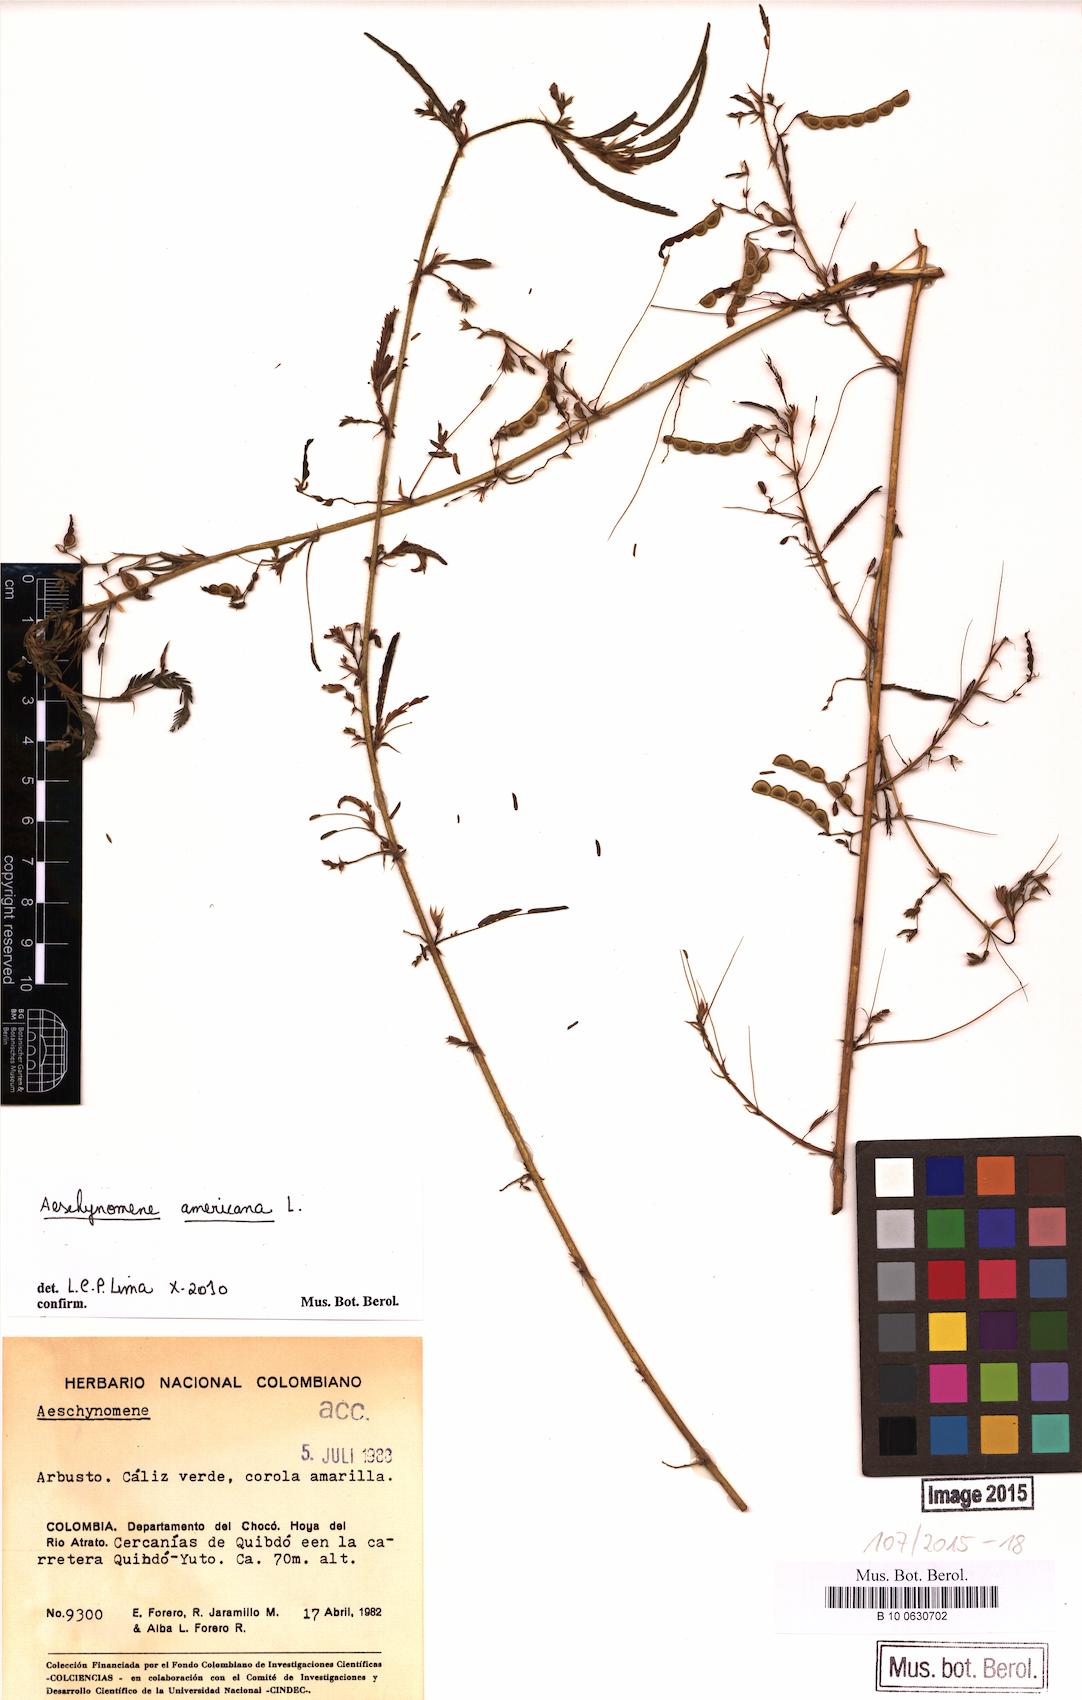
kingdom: Plantae
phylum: Tracheophyta
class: Magnoliopsida
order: Fabales
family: Fabaceae
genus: Aeschynomene
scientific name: Aeschynomene americana
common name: Joint-vetch
